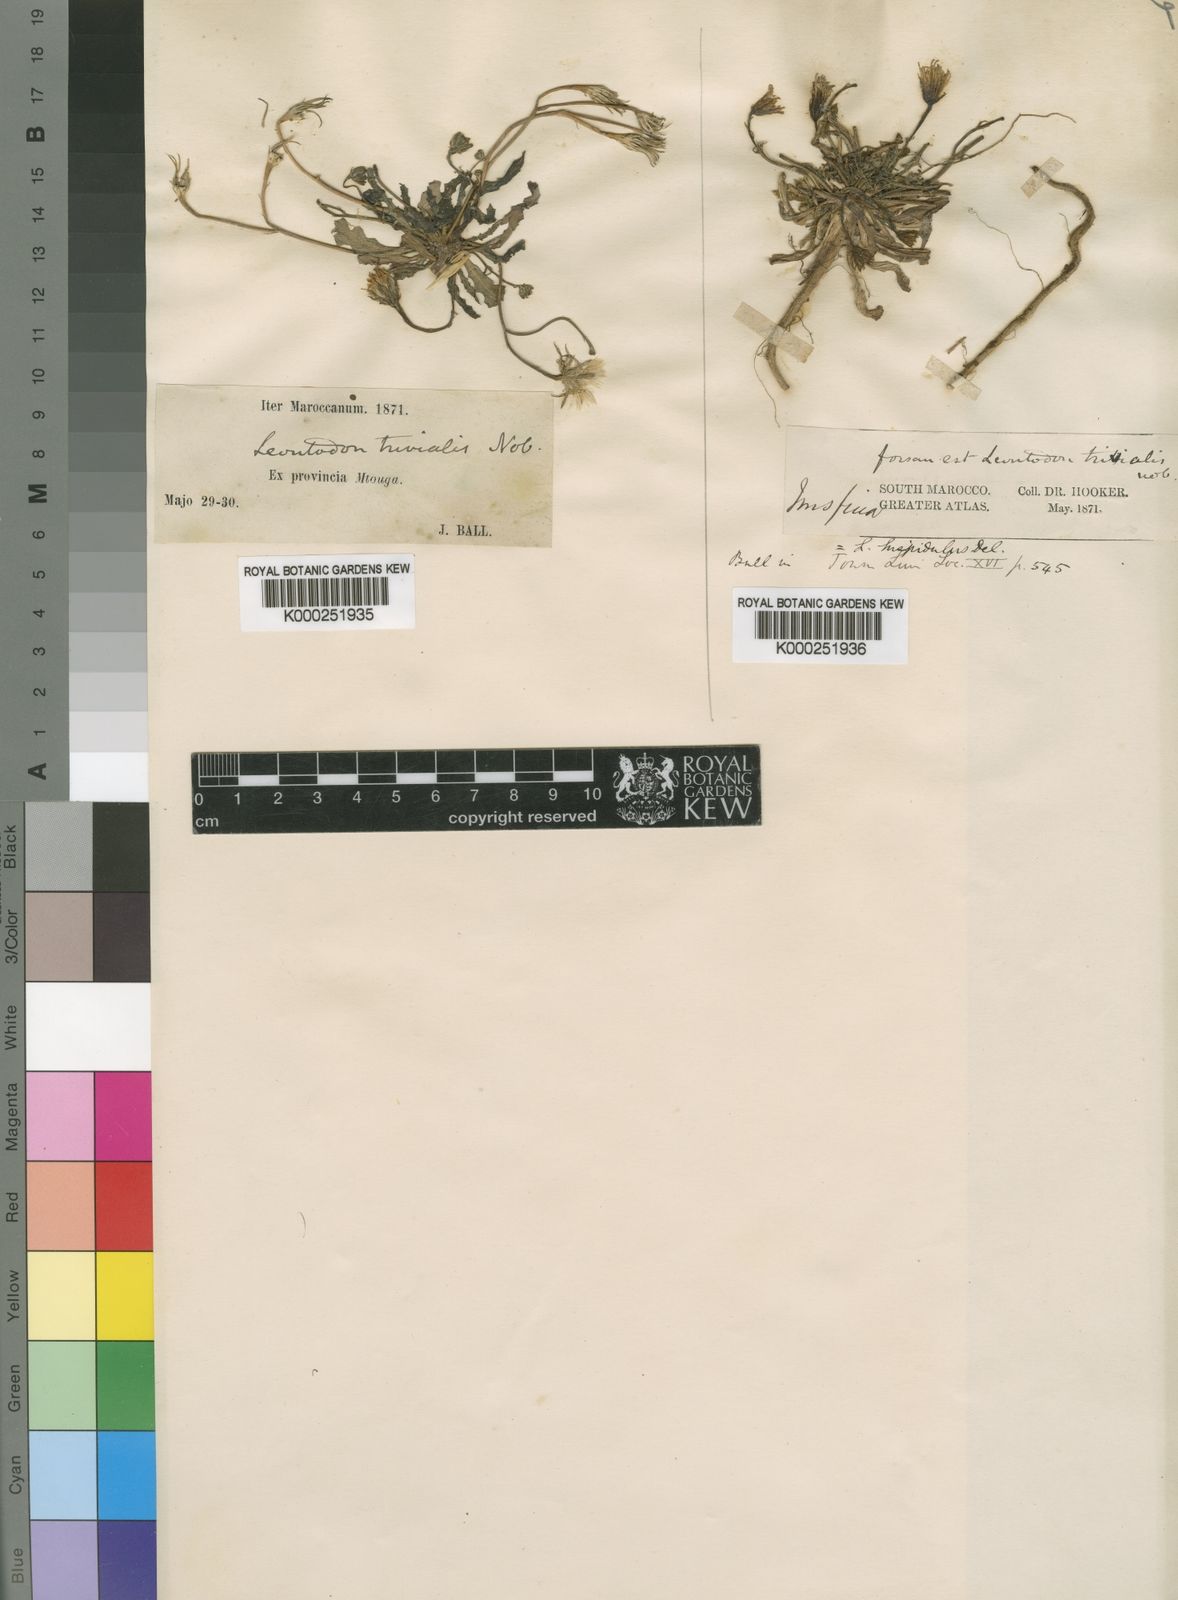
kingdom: Plantae
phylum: Tracheophyta
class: Magnoliopsida
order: Asterales
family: Asteraceae
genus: Leontodon
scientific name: Leontodon
